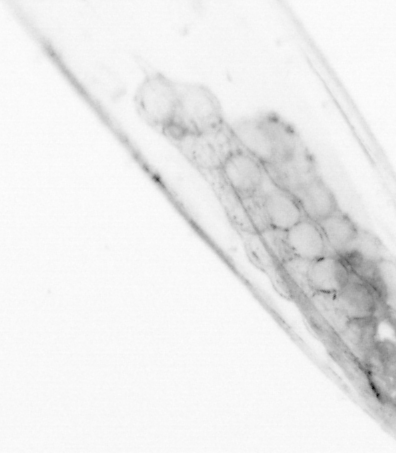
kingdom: Animalia
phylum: Chaetognatha
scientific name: Chaetognatha
